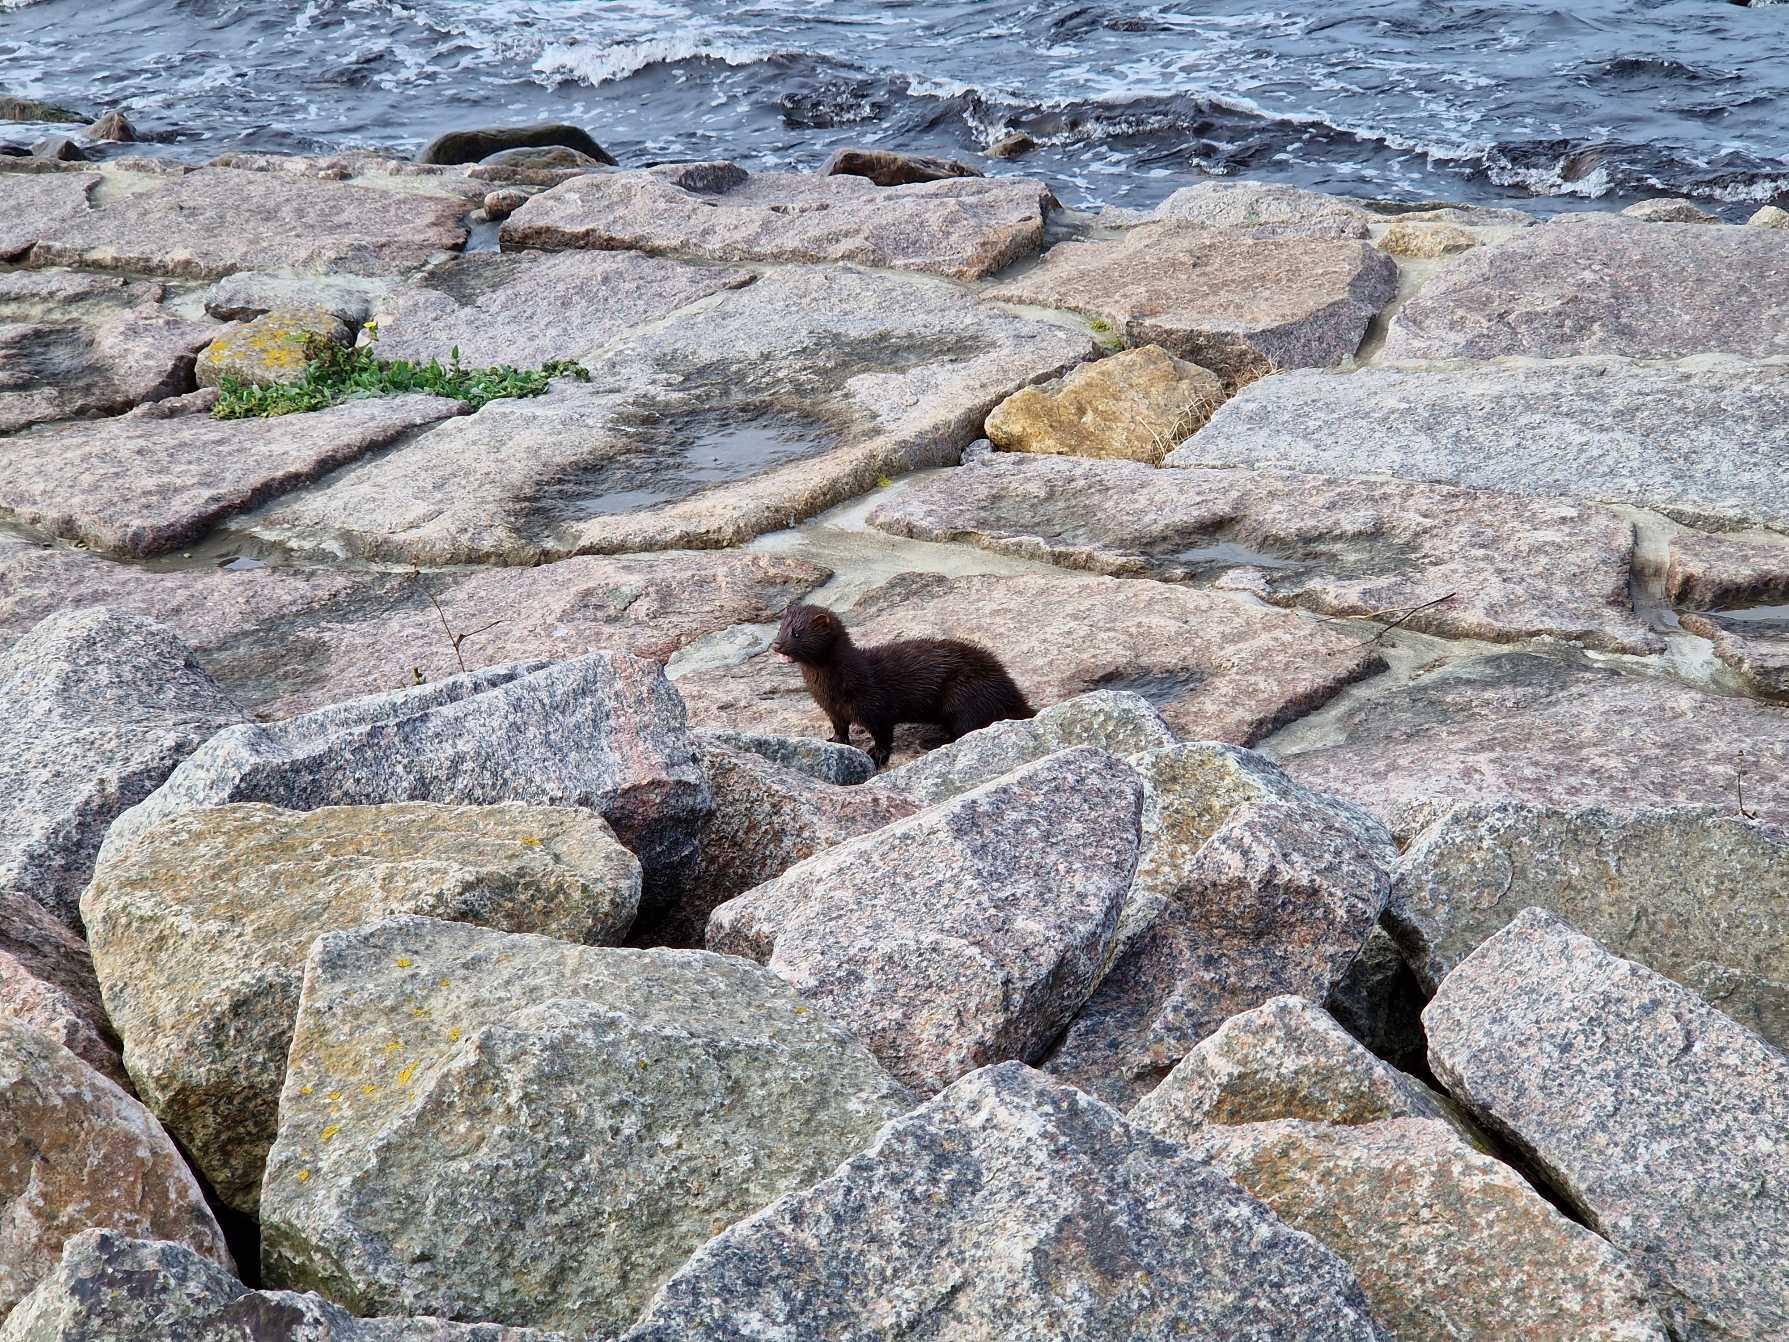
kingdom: Animalia
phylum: Chordata
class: Mammalia
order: Carnivora
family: Mustelidae
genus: Mustela
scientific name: Mustela vison
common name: Mink
